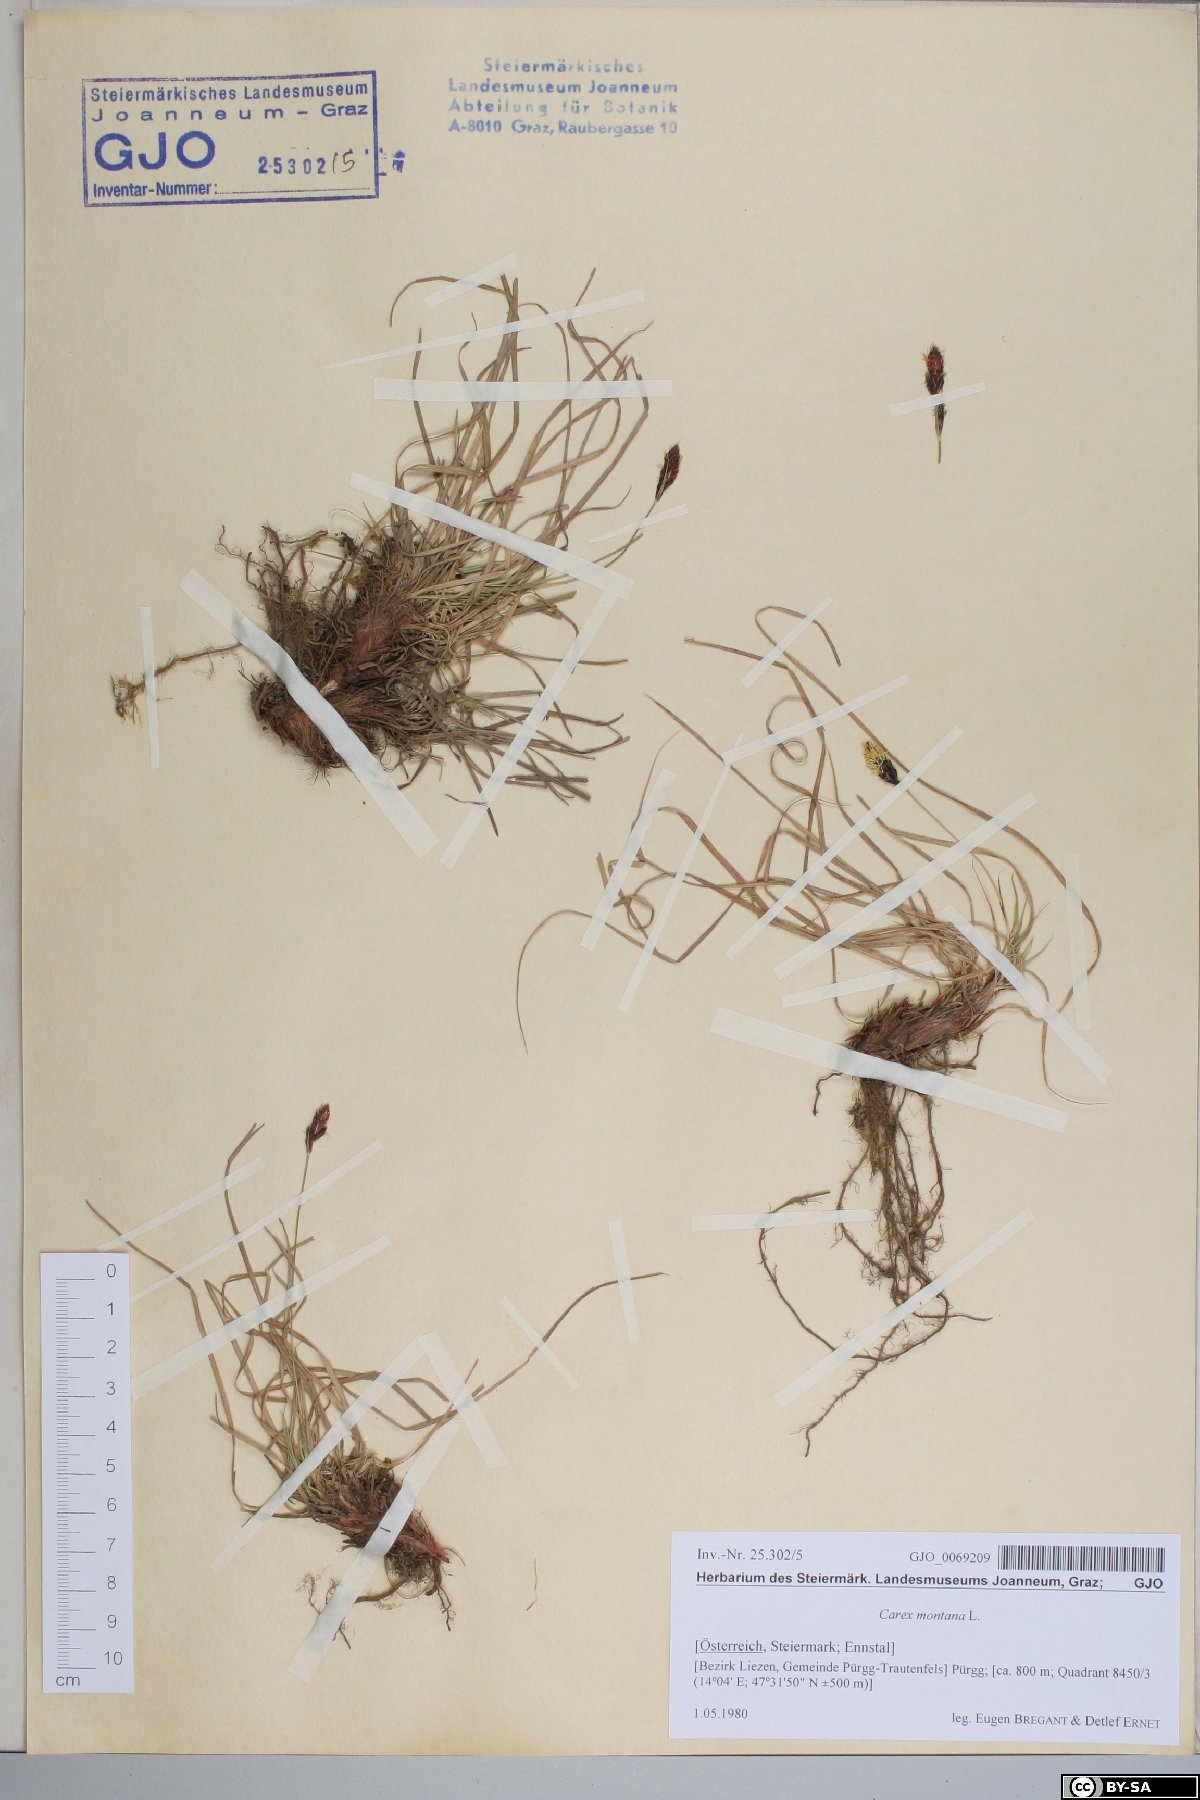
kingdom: Plantae
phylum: Tracheophyta
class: Liliopsida
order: Poales
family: Cyperaceae
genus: Carex
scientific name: Carex montana
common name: Soft-leaved sedge
